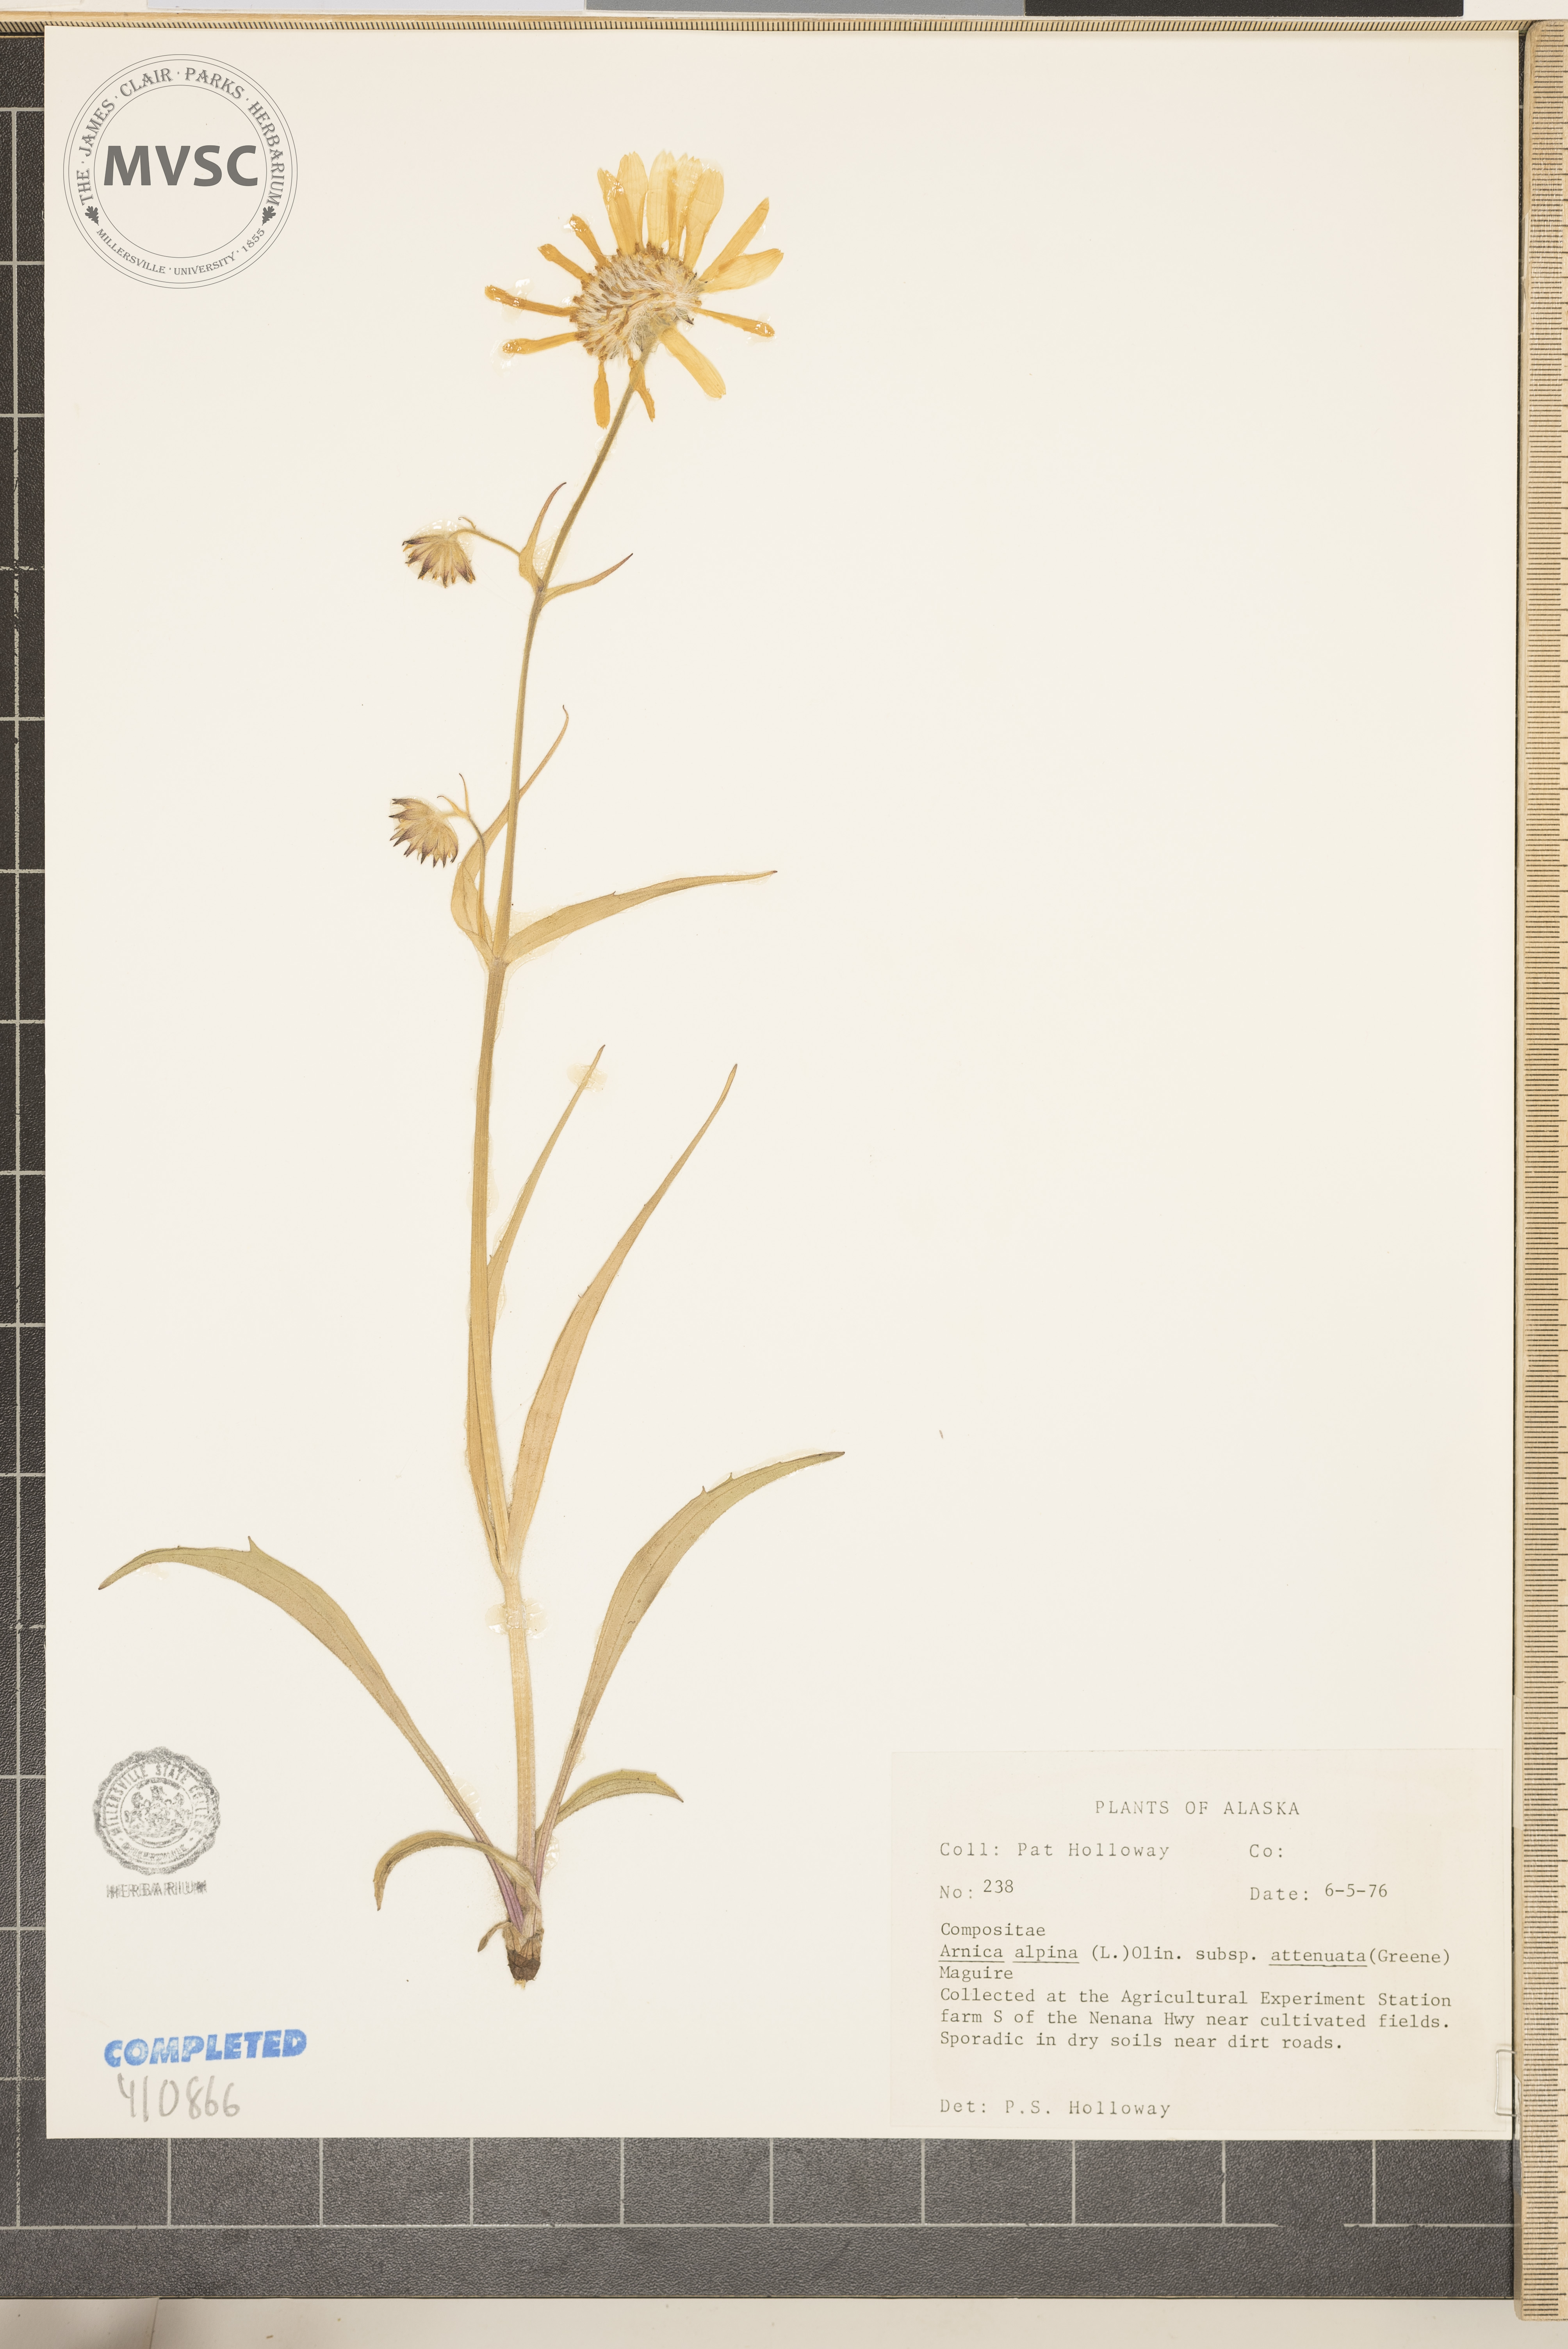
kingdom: Plantae
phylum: Tracheophyta
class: Magnoliopsida
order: Asterales
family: Asteraceae
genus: Arnica
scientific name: Arnica
